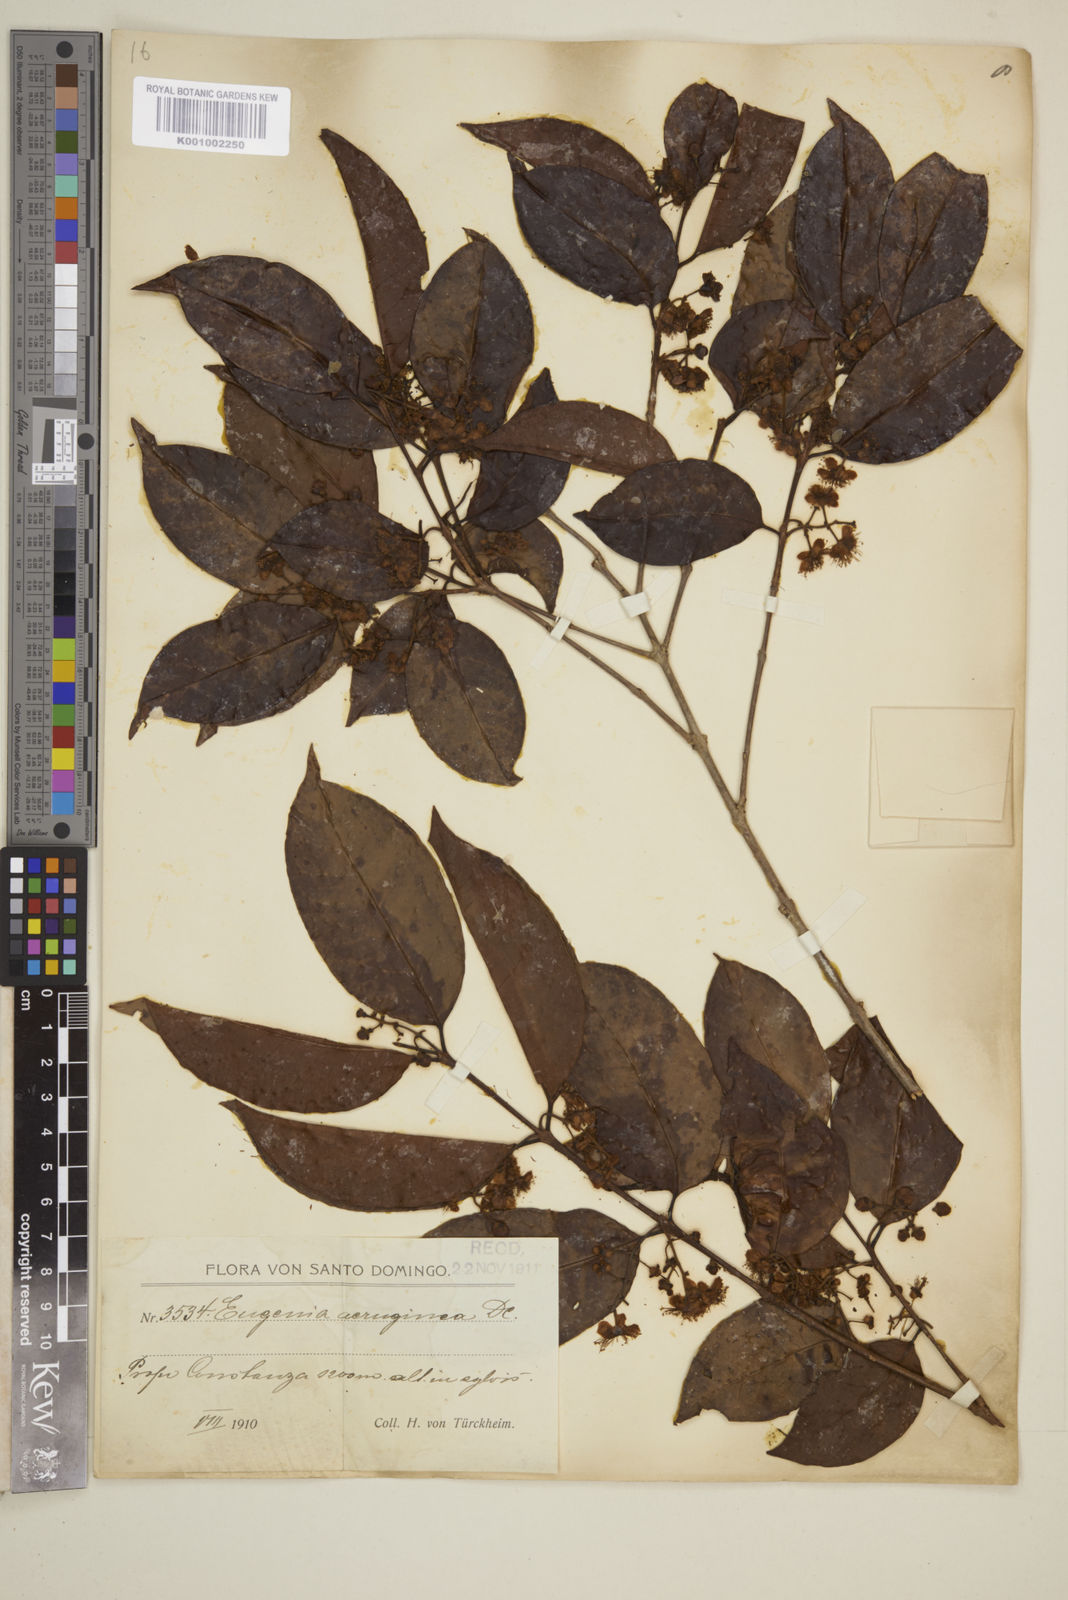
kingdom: Plantae
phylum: Tracheophyta
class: Magnoliopsida
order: Myrtales
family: Myrtaceae
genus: Eugenia
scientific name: Eugenia domingensis
